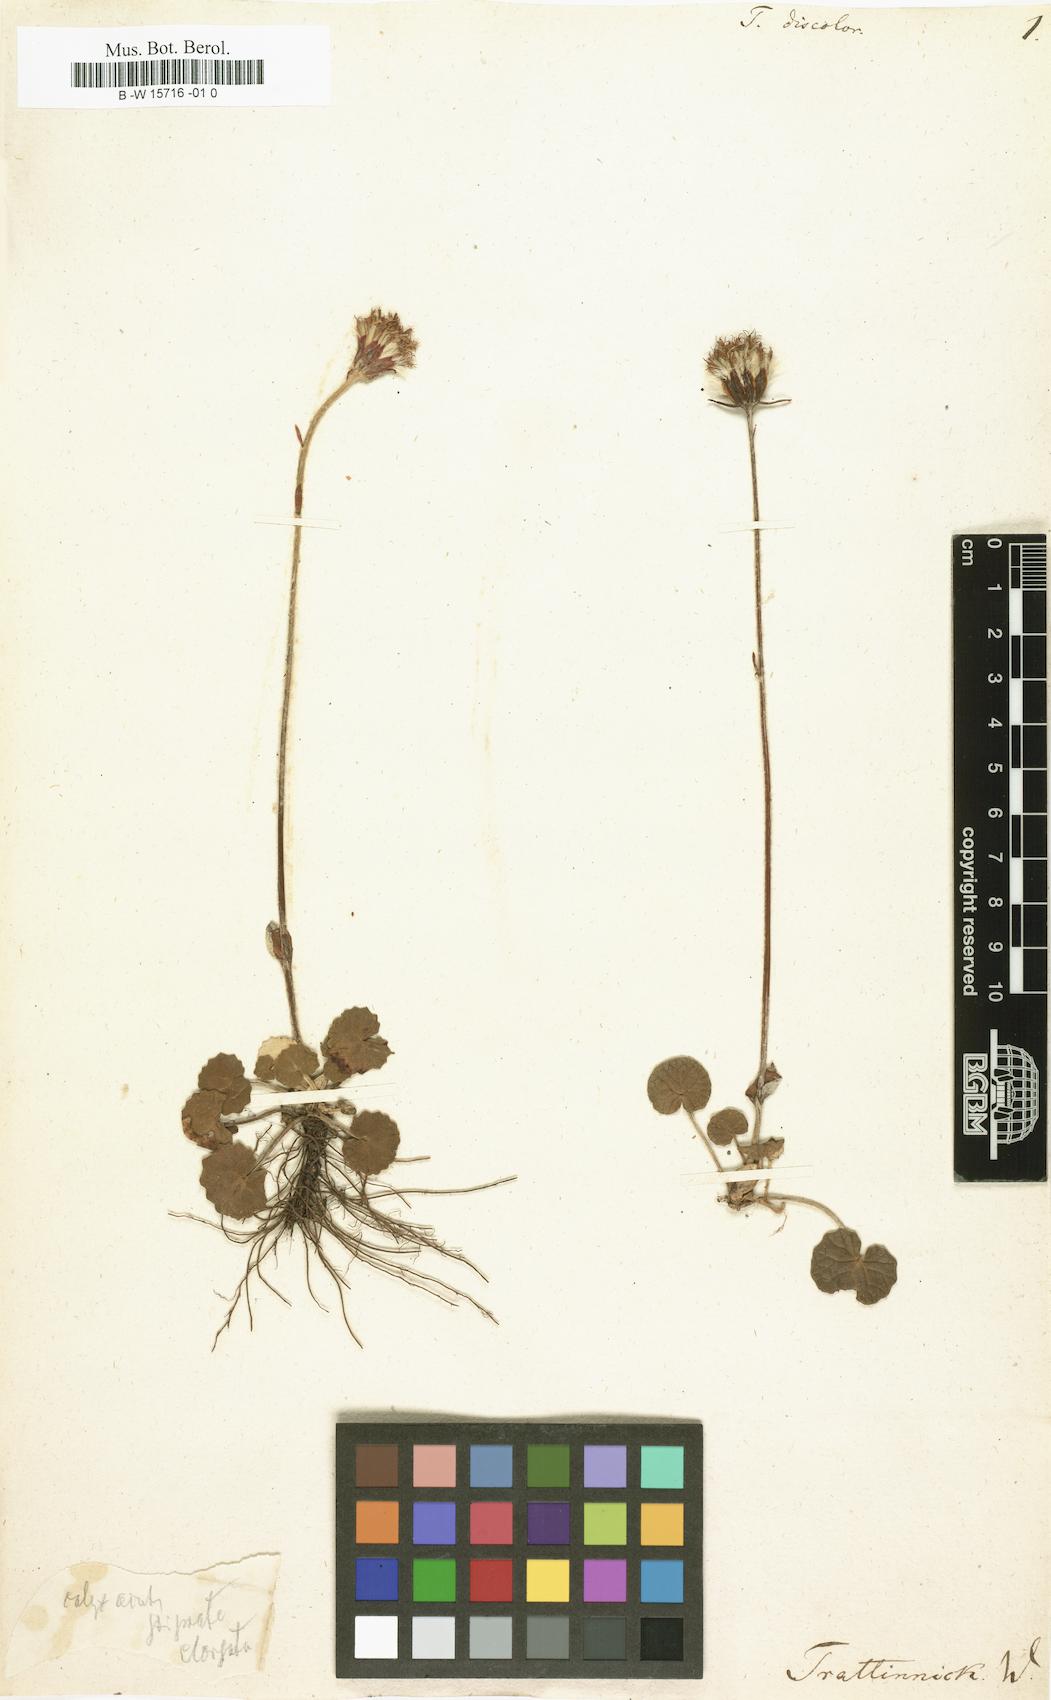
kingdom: Plantae
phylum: Tracheophyta
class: Magnoliopsida
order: Asterales
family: Asteraceae
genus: Homogyne
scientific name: Homogyne discolor
